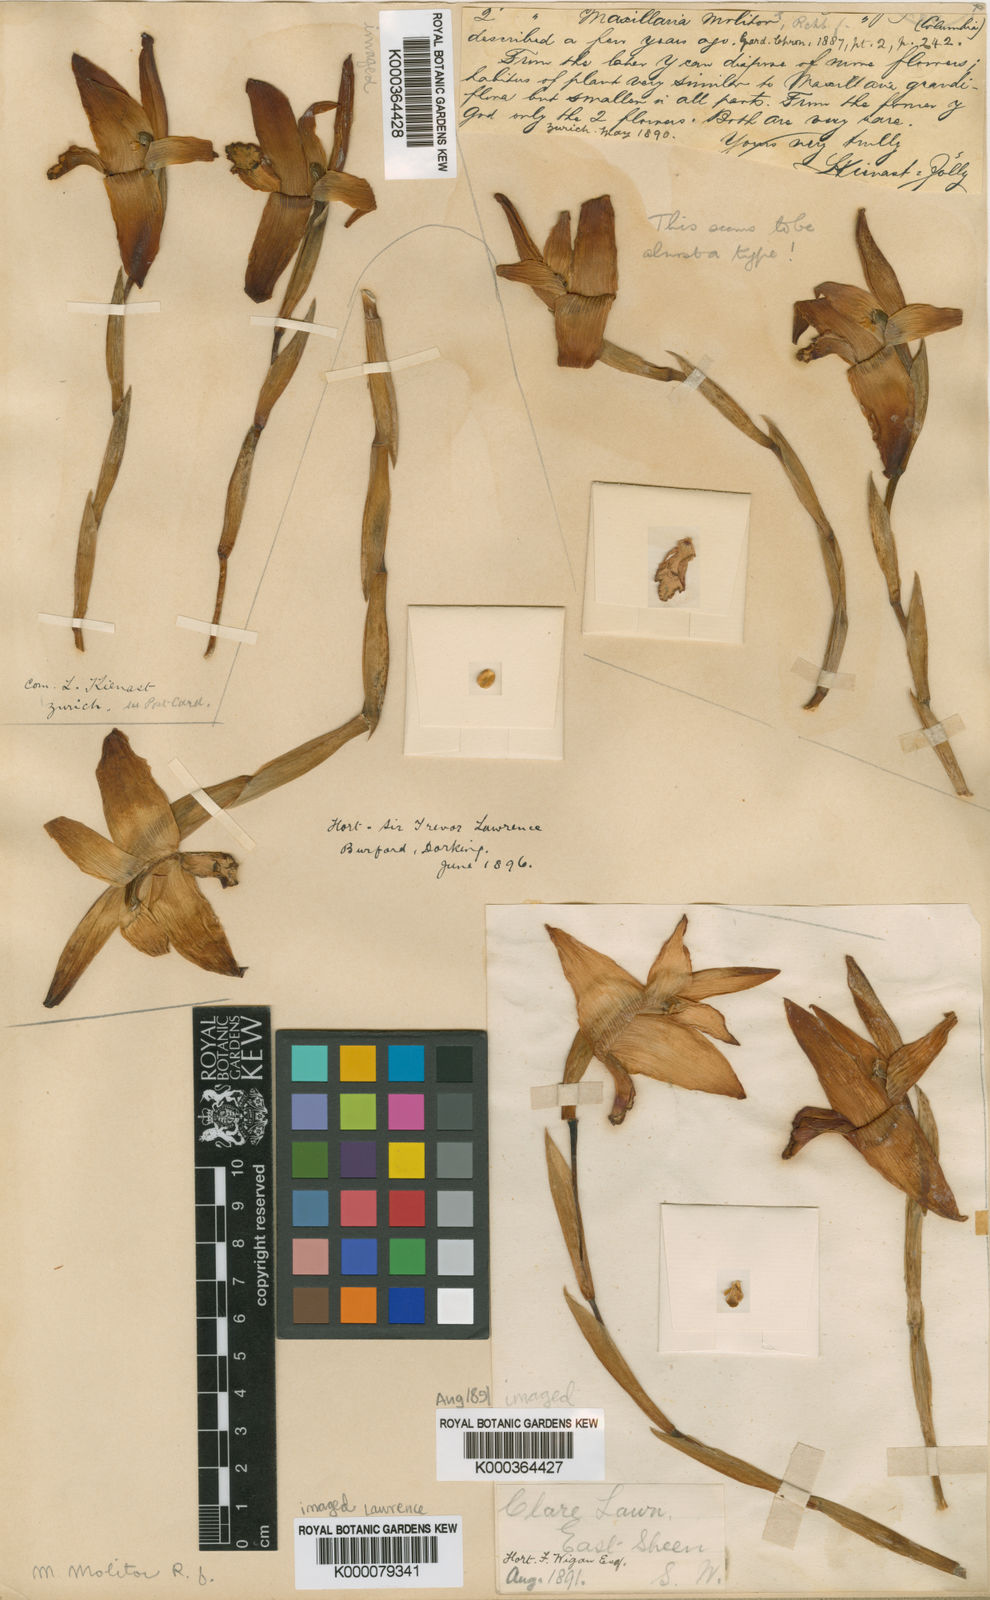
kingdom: Plantae
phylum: Tracheophyta
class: Liliopsida
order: Asparagales
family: Orchidaceae
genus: Maxillaria
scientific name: Maxillaria molitor
